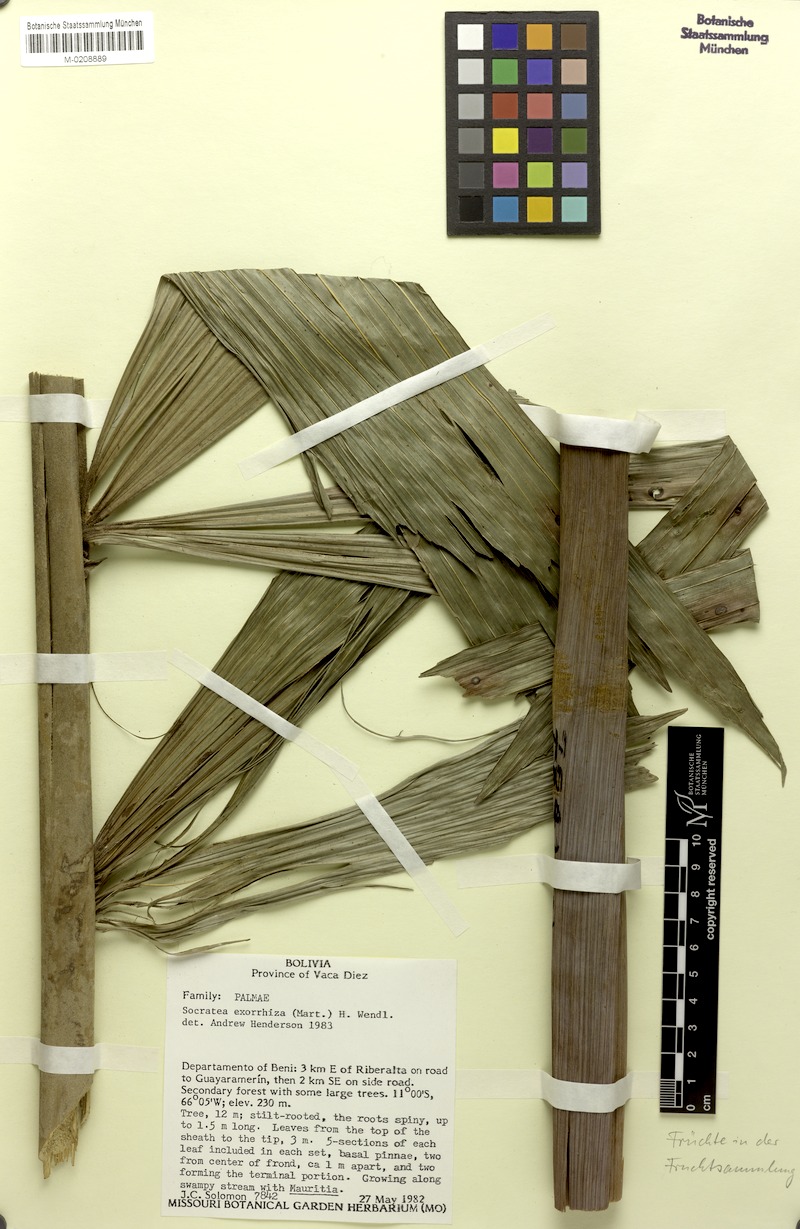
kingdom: Plantae
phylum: Tracheophyta
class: Liliopsida
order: Arecales
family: Arecaceae
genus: Socratea
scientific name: Socratea exorrhiza
